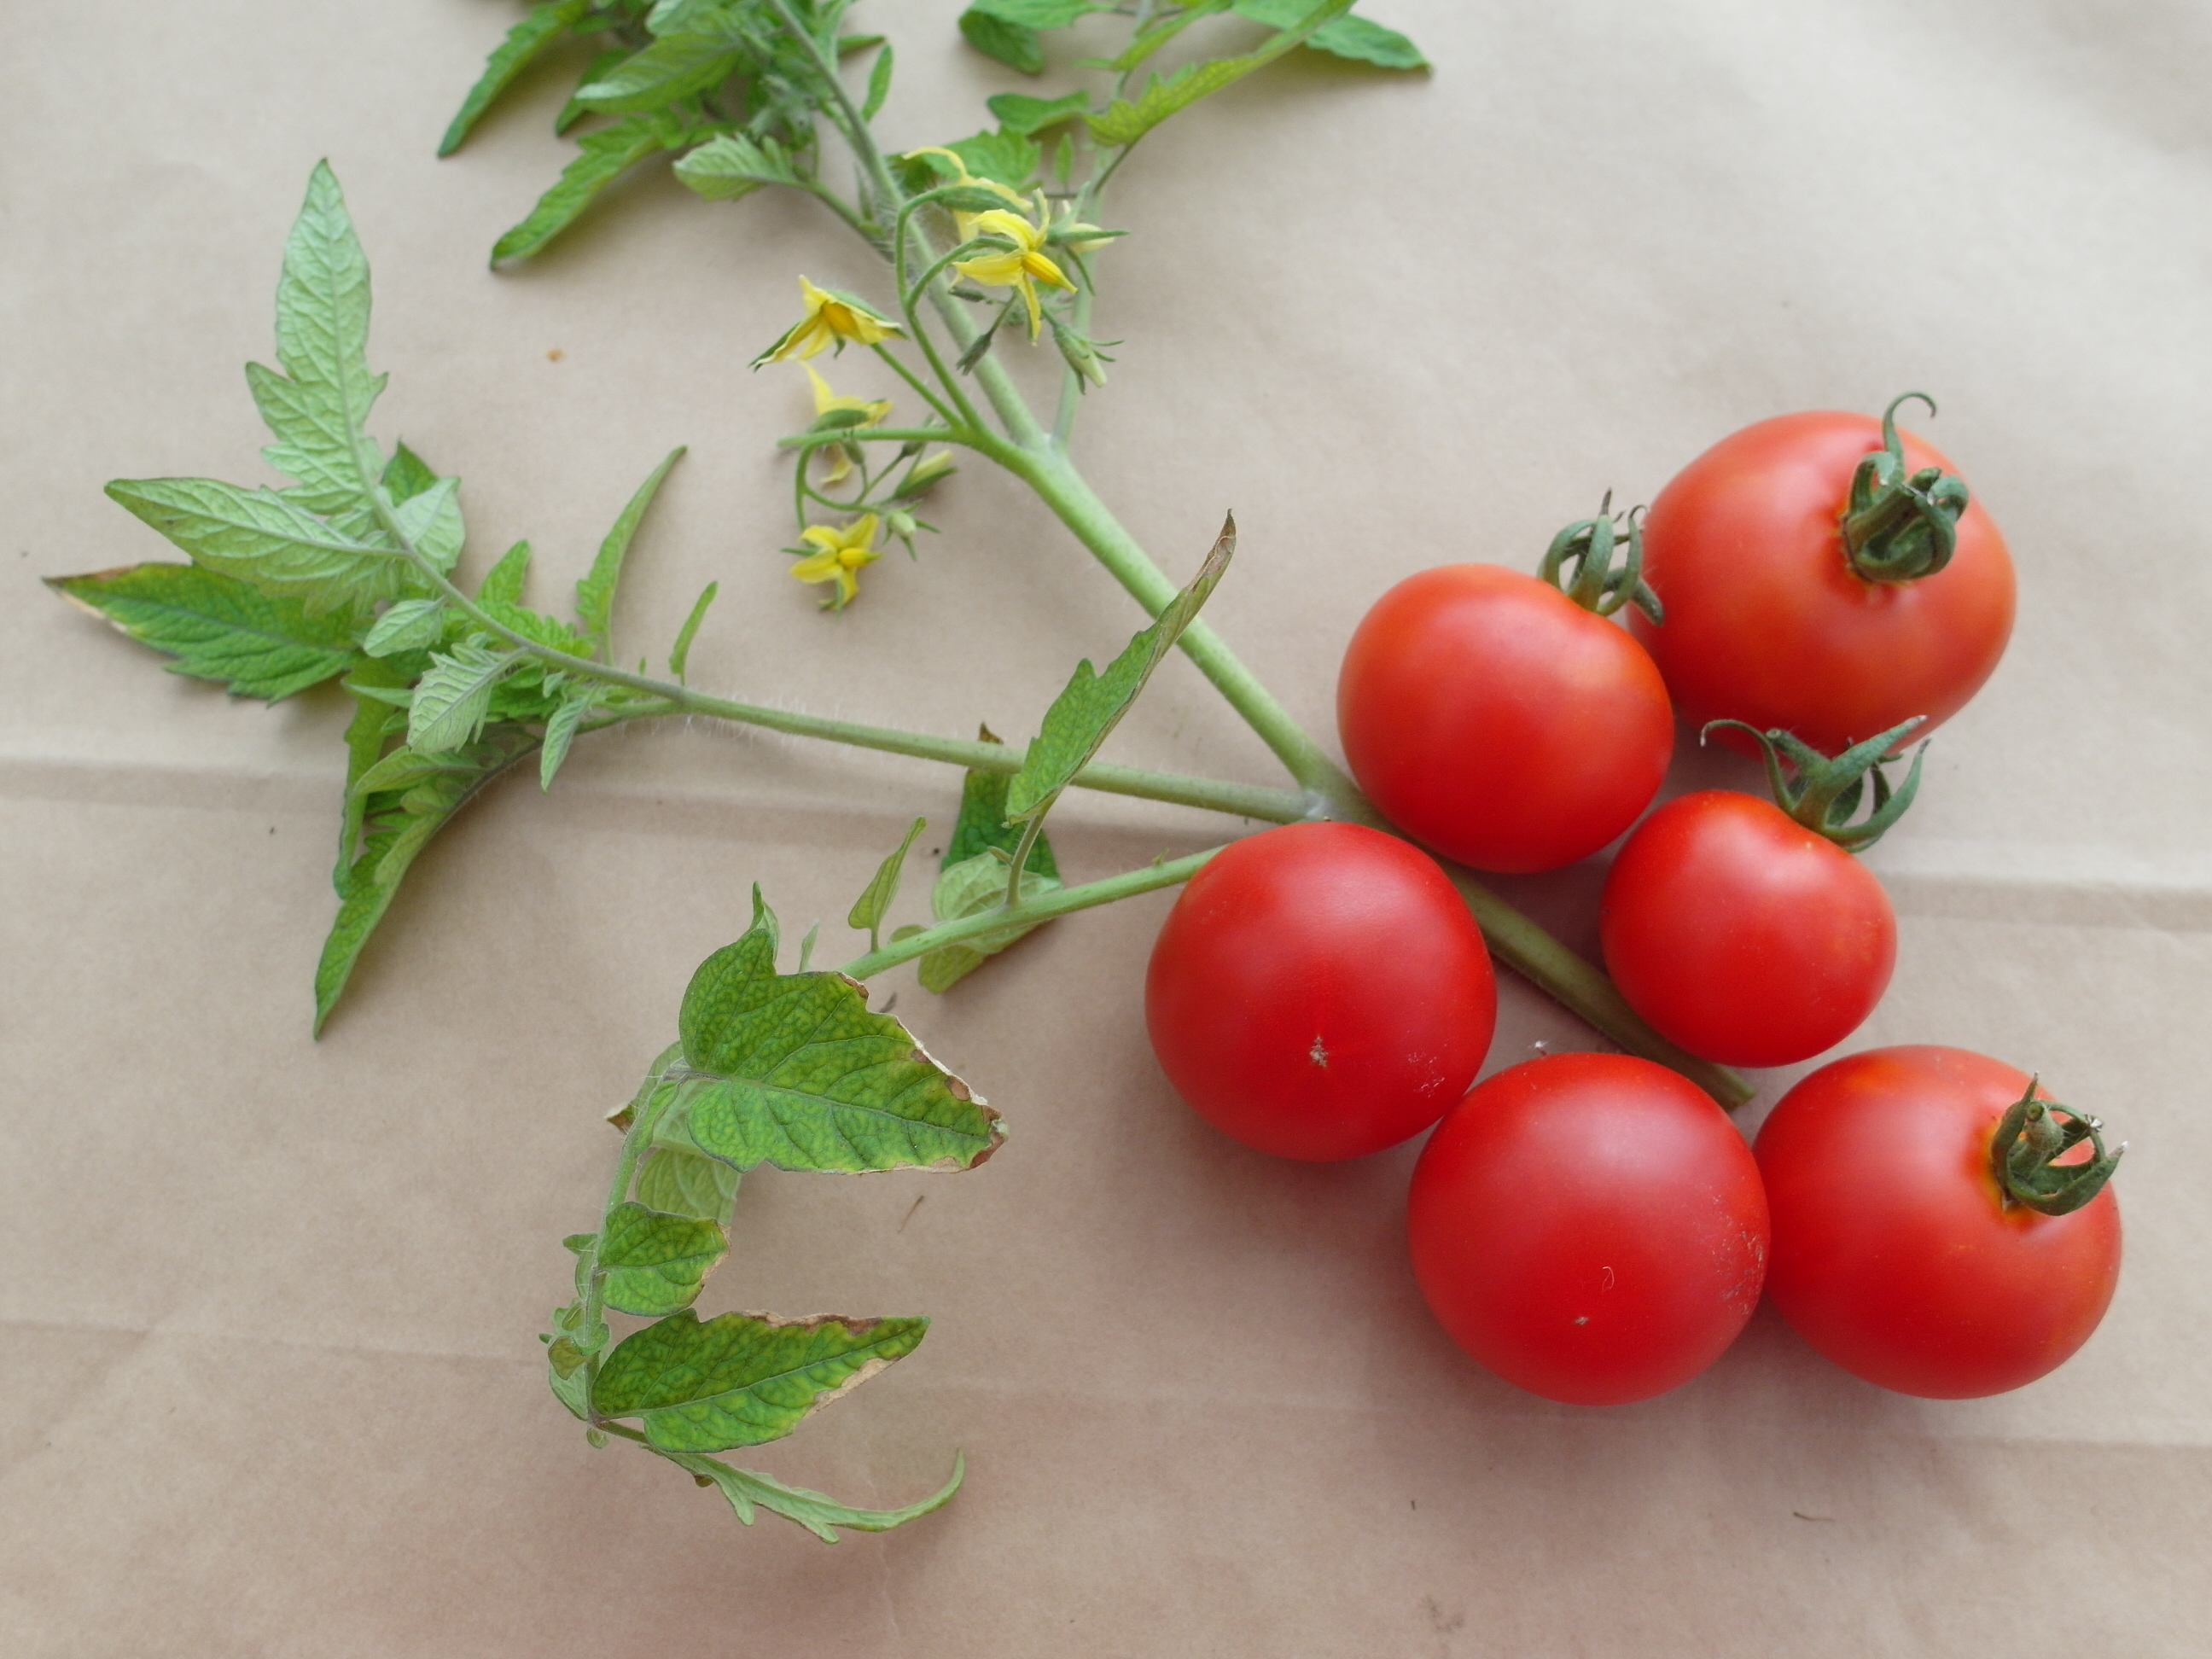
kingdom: Plantae
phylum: Tracheophyta
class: Magnoliopsida
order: Solanales
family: Solanaceae
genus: Solanum
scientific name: Solanum lycopersicum
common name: Garden tomato
